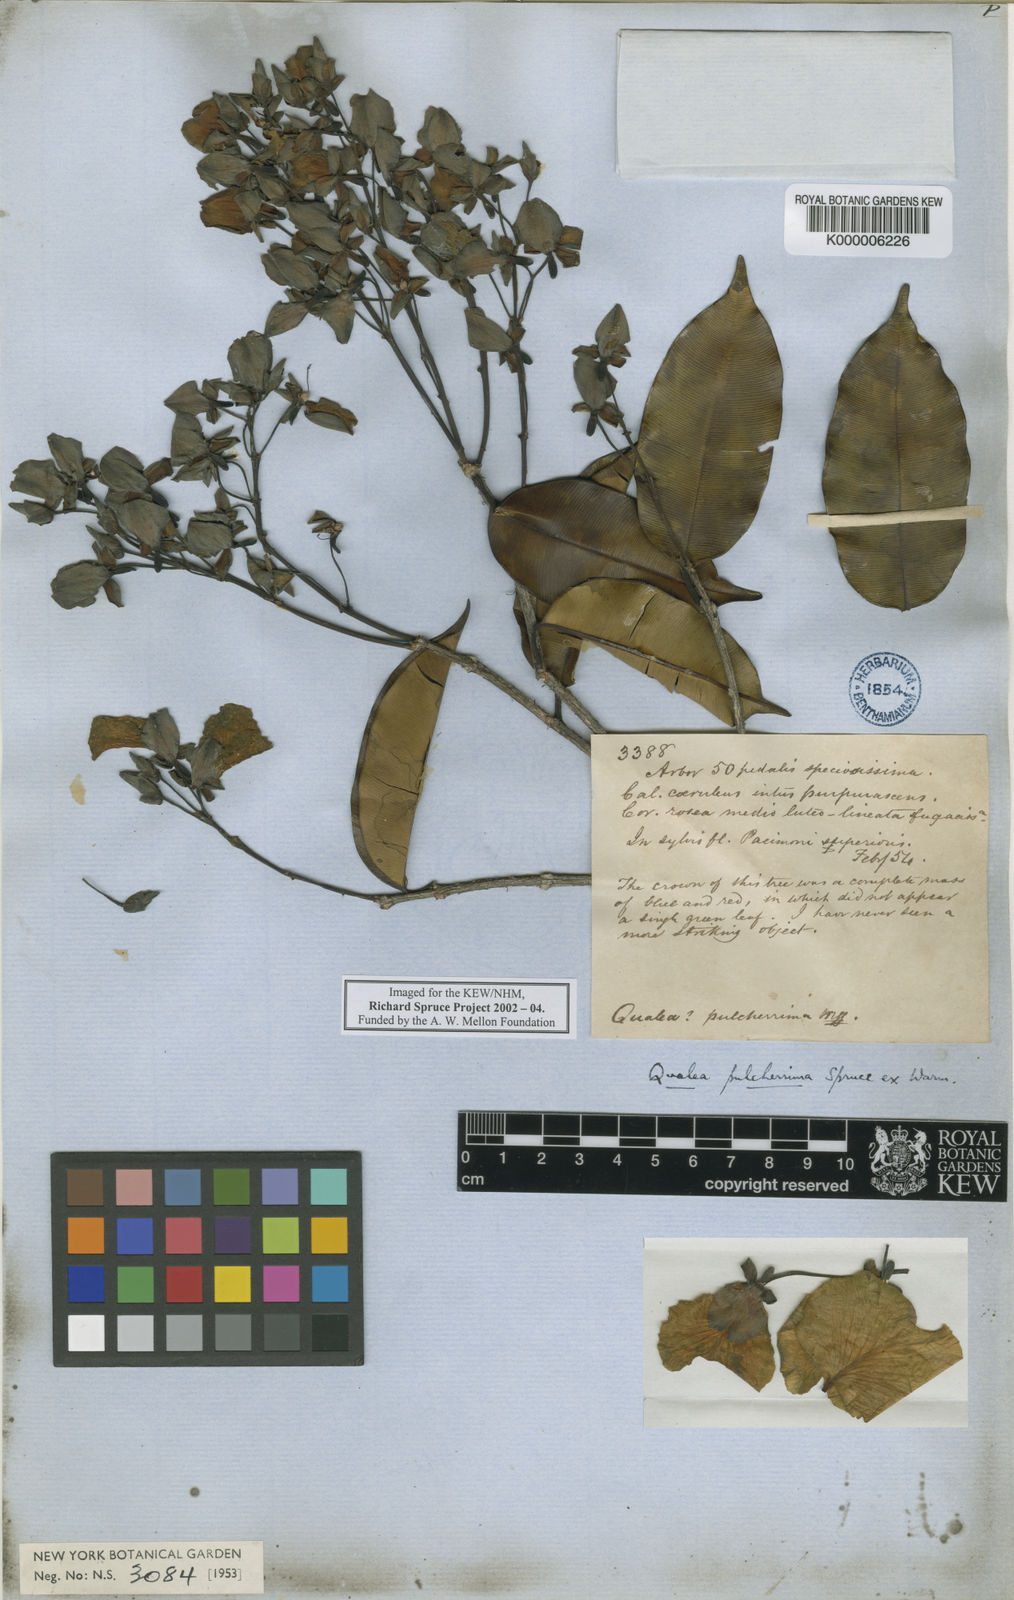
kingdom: Plantae
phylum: Tracheophyta
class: Magnoliopsida
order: Myrtales
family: Vochysiaceae
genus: Qualea
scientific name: Qualea pulcherrima
